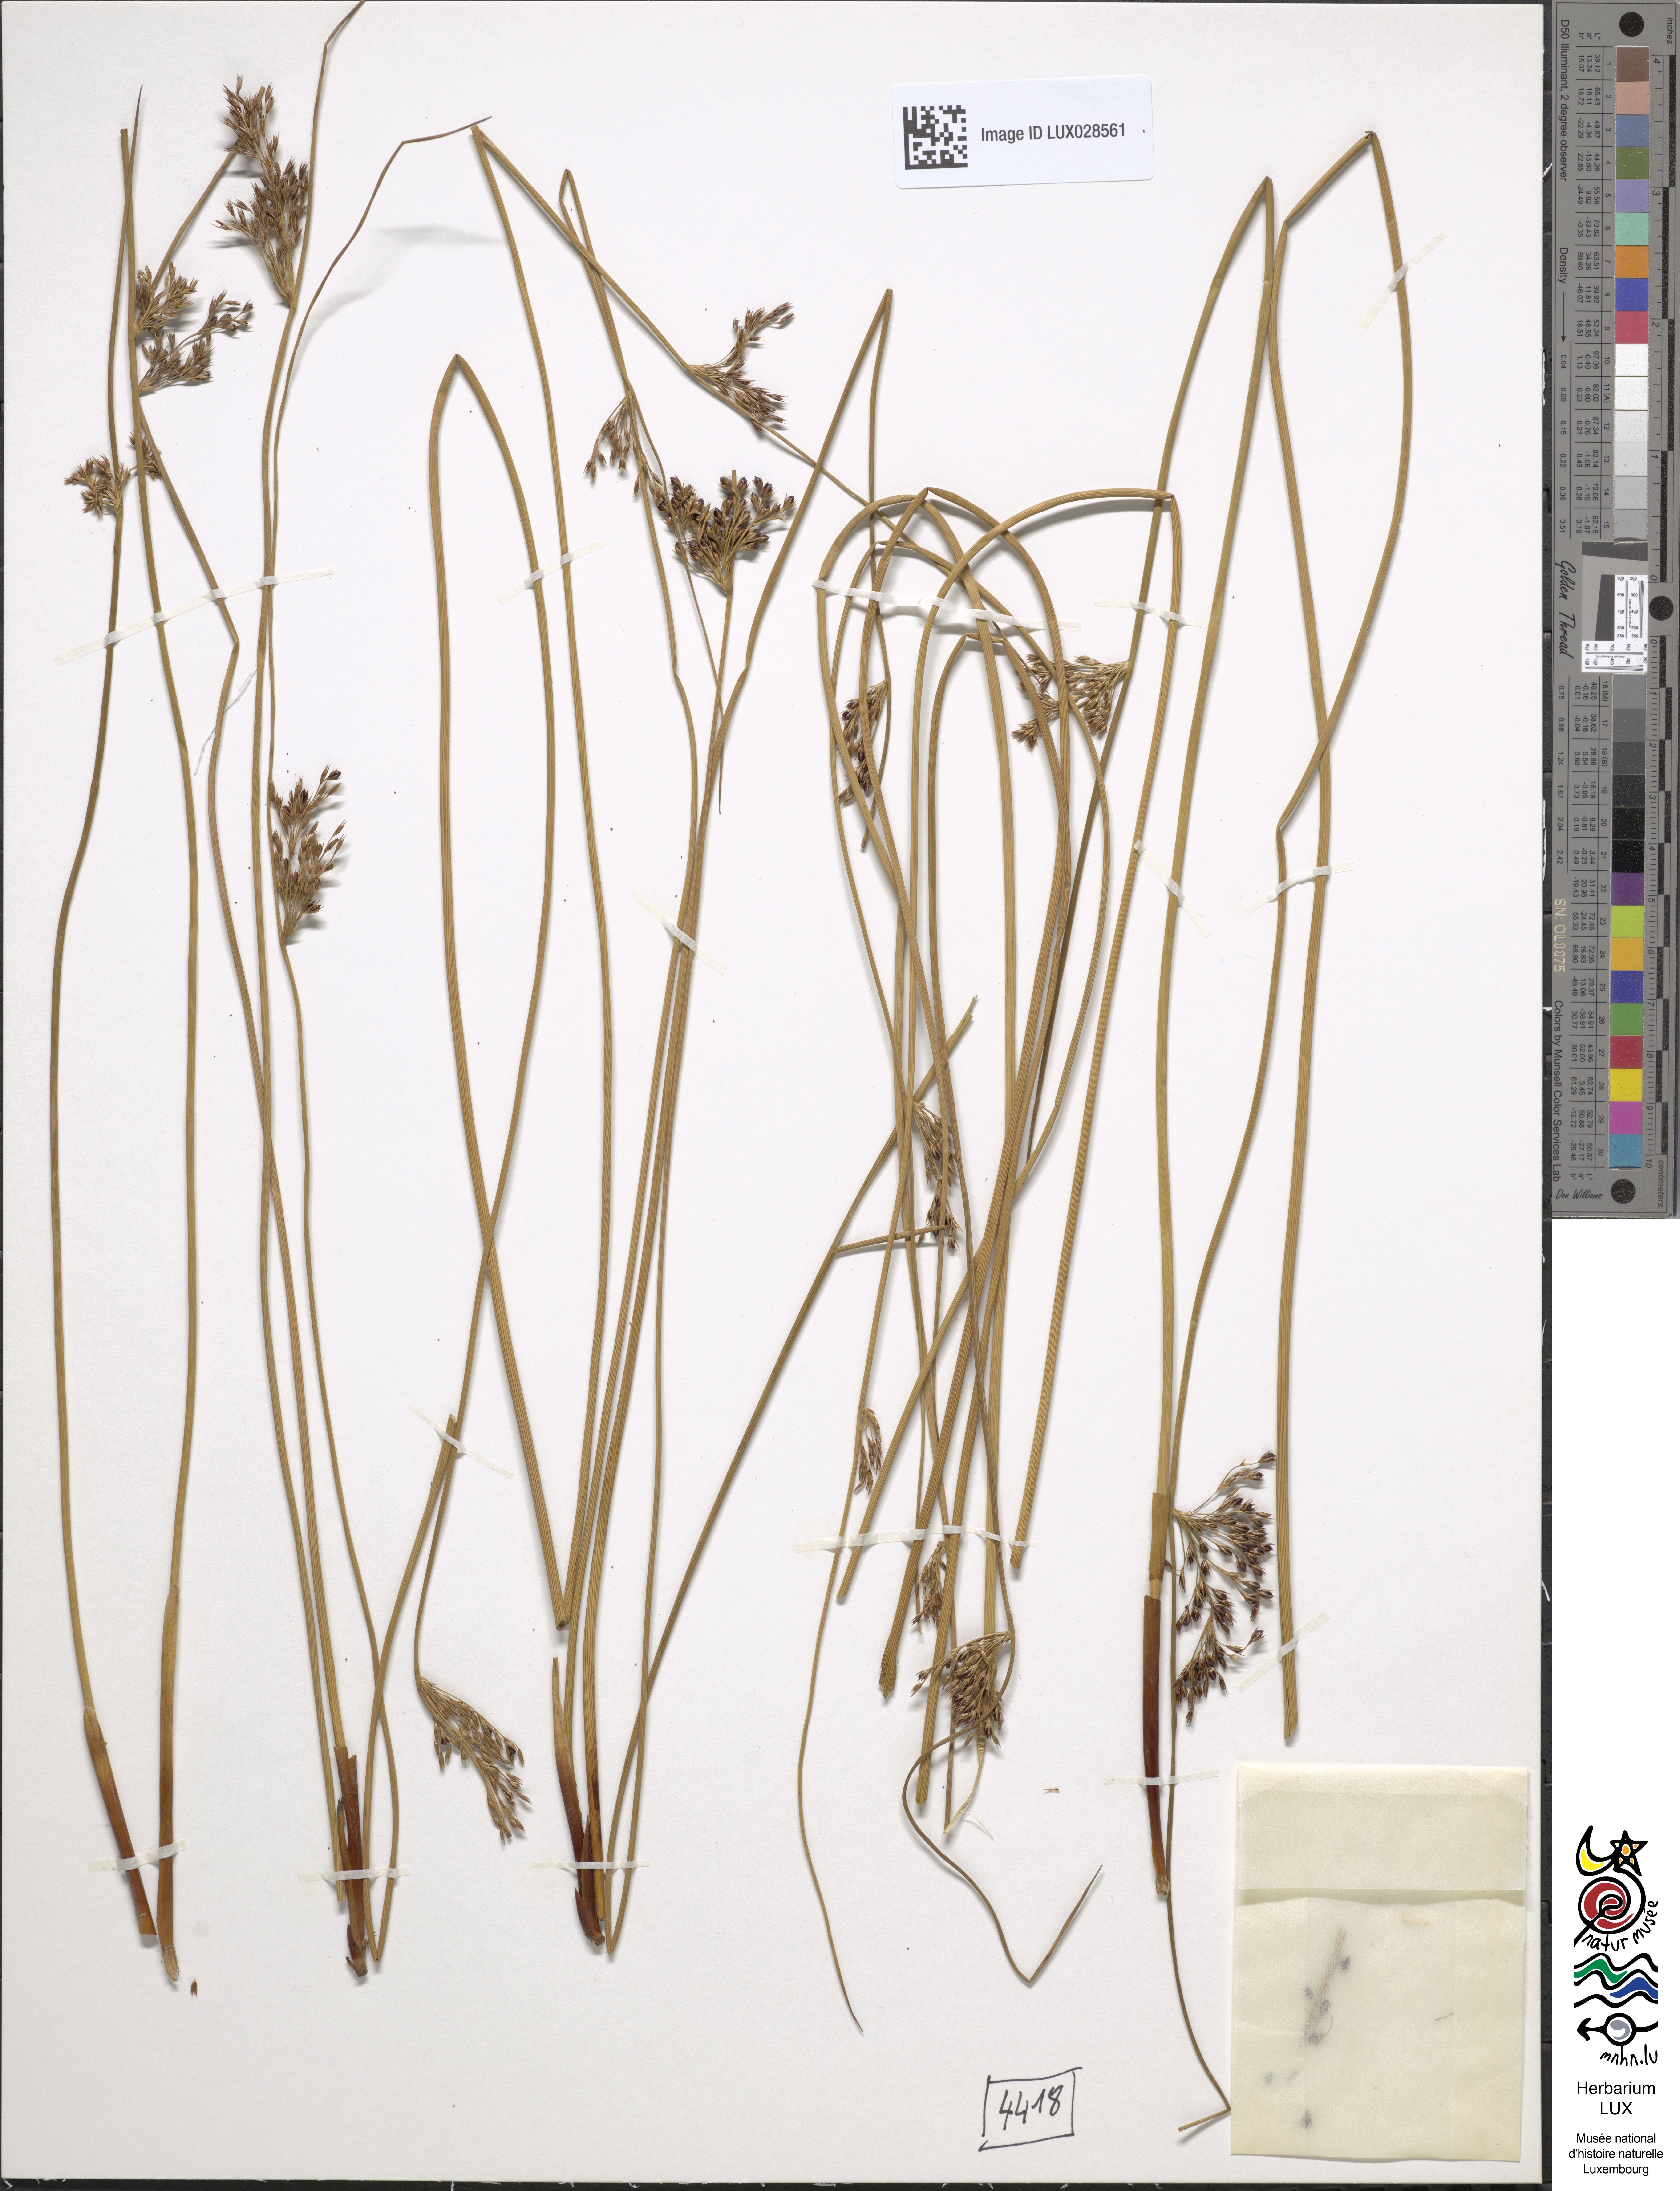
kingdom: Plantae
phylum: Tracheophyta
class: Liliopsida
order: Poales
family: Juncaceae
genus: Juncus
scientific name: Juncus diffusus
